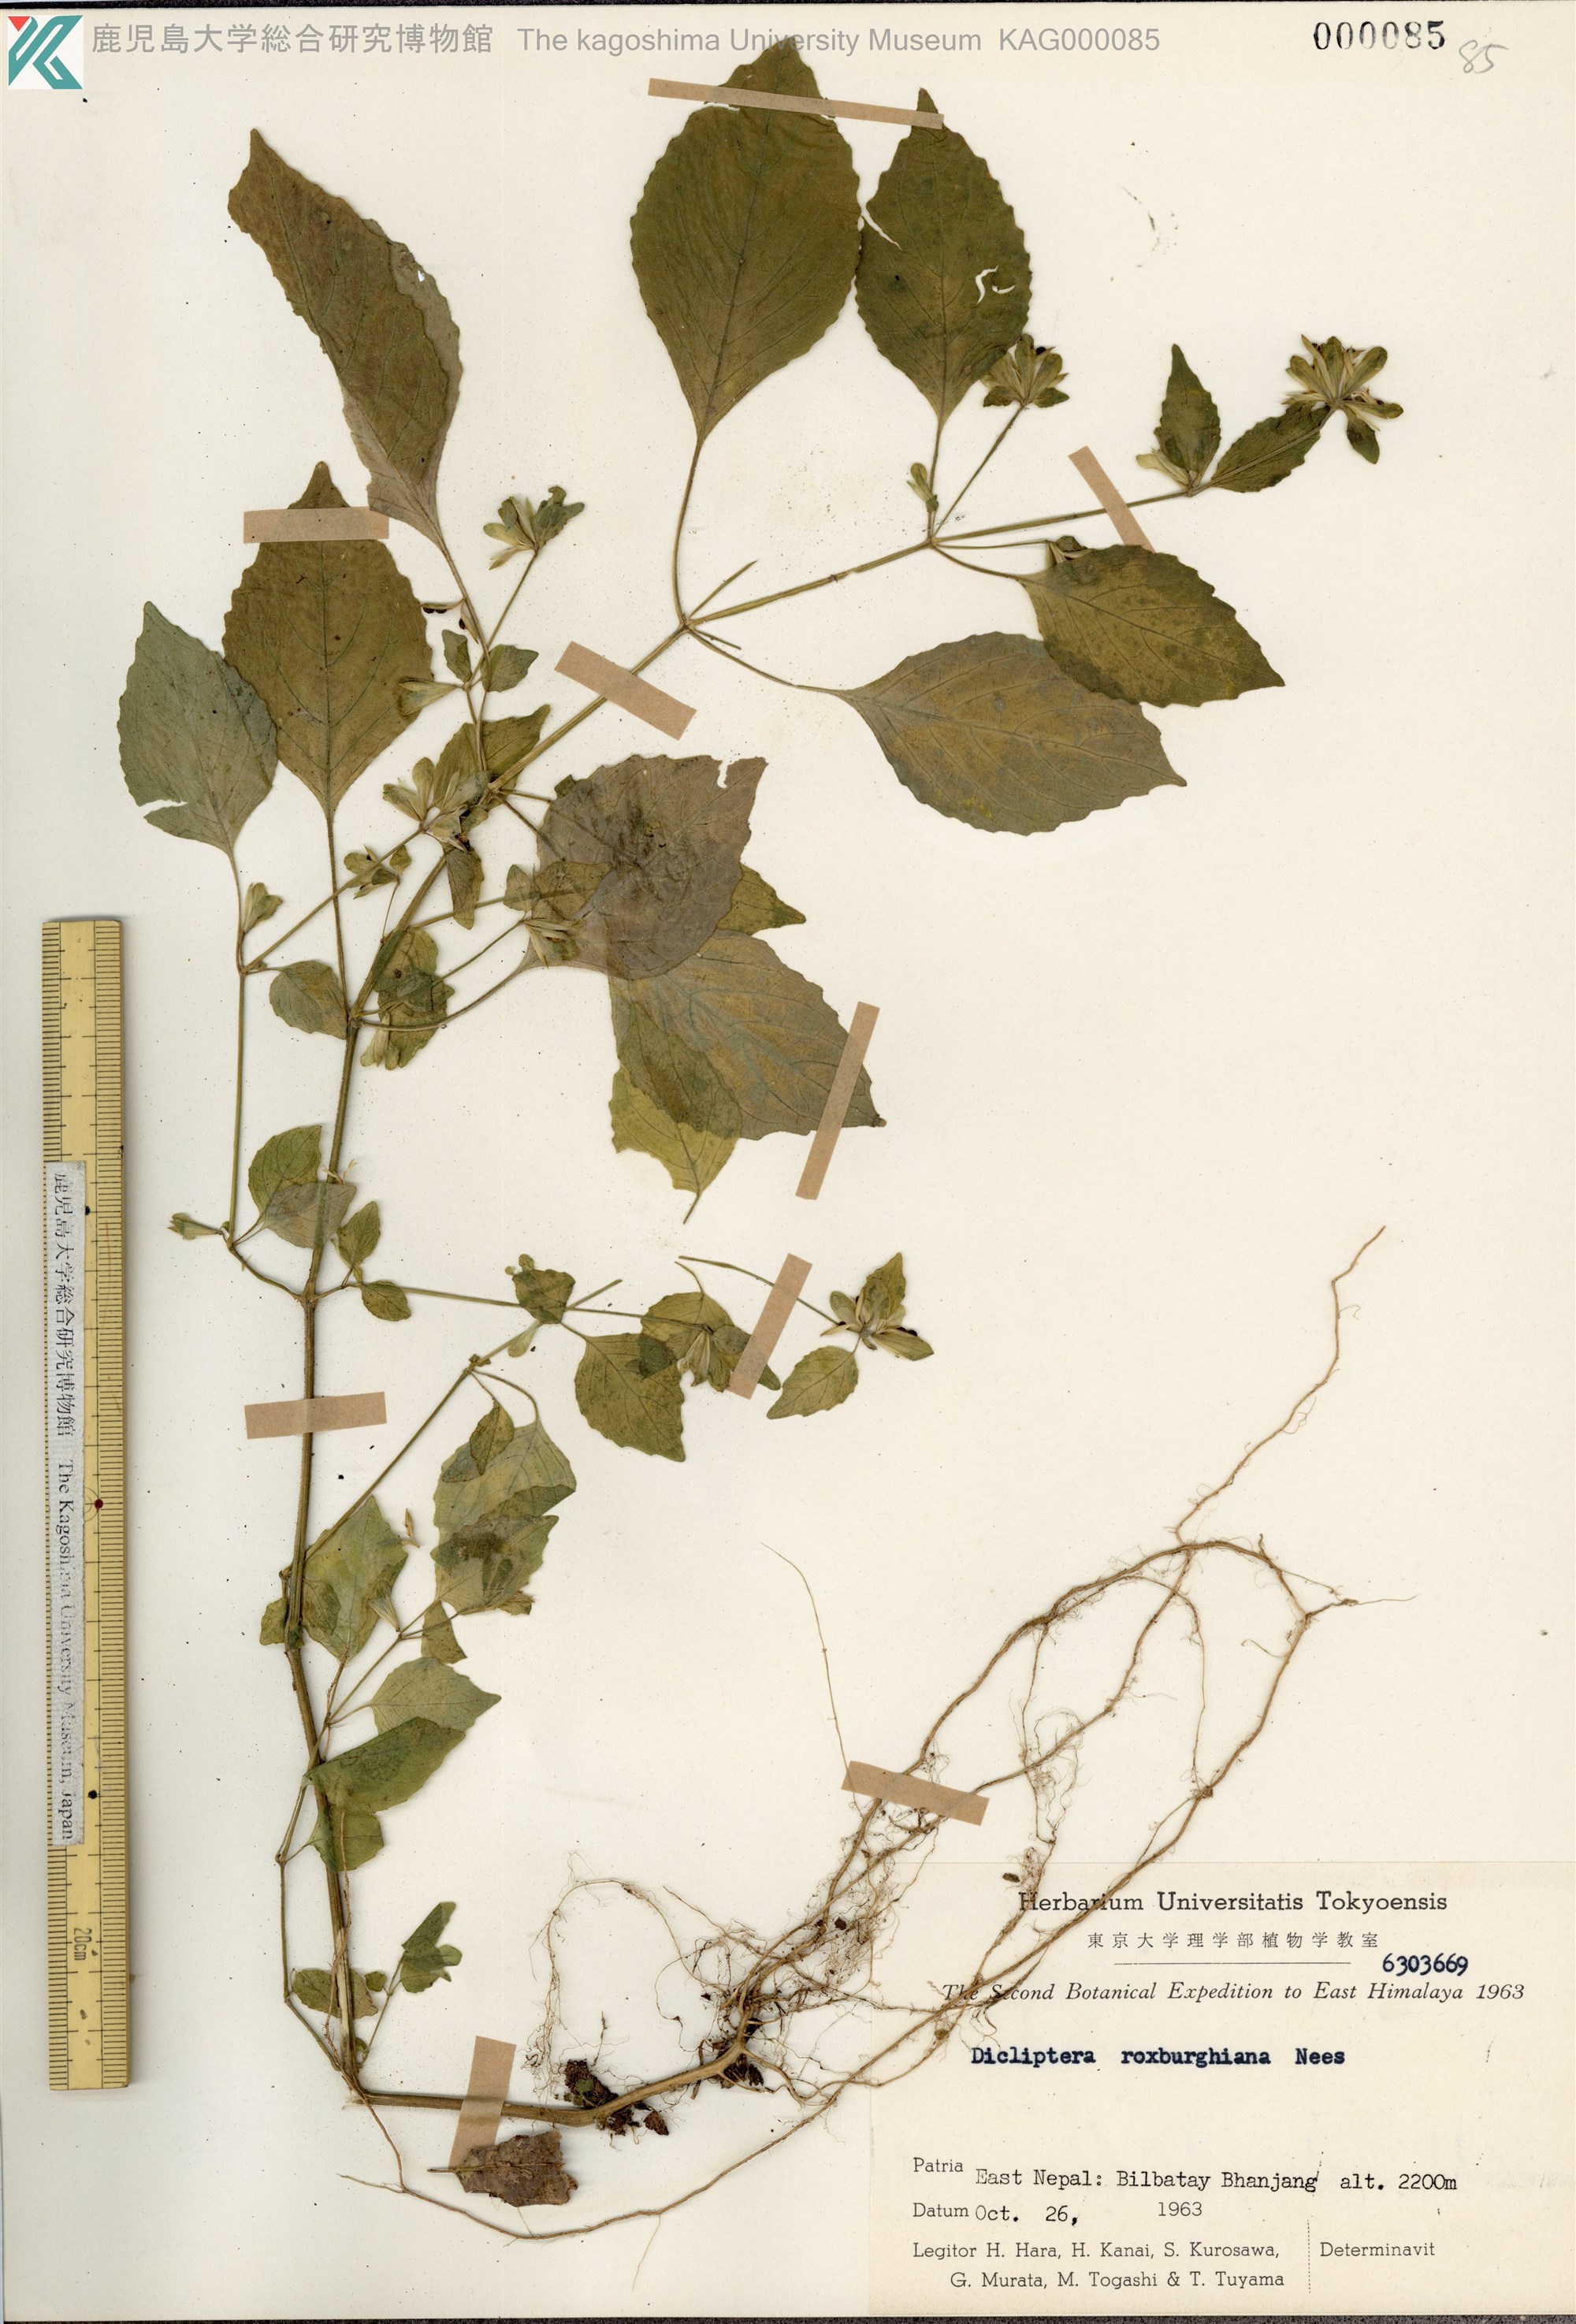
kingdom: Plantae
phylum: Tracheophyta
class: Magnoliopsida
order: Lamiales
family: Acanthaceae
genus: Dicliptera
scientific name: Dicliptera roxburghiana
